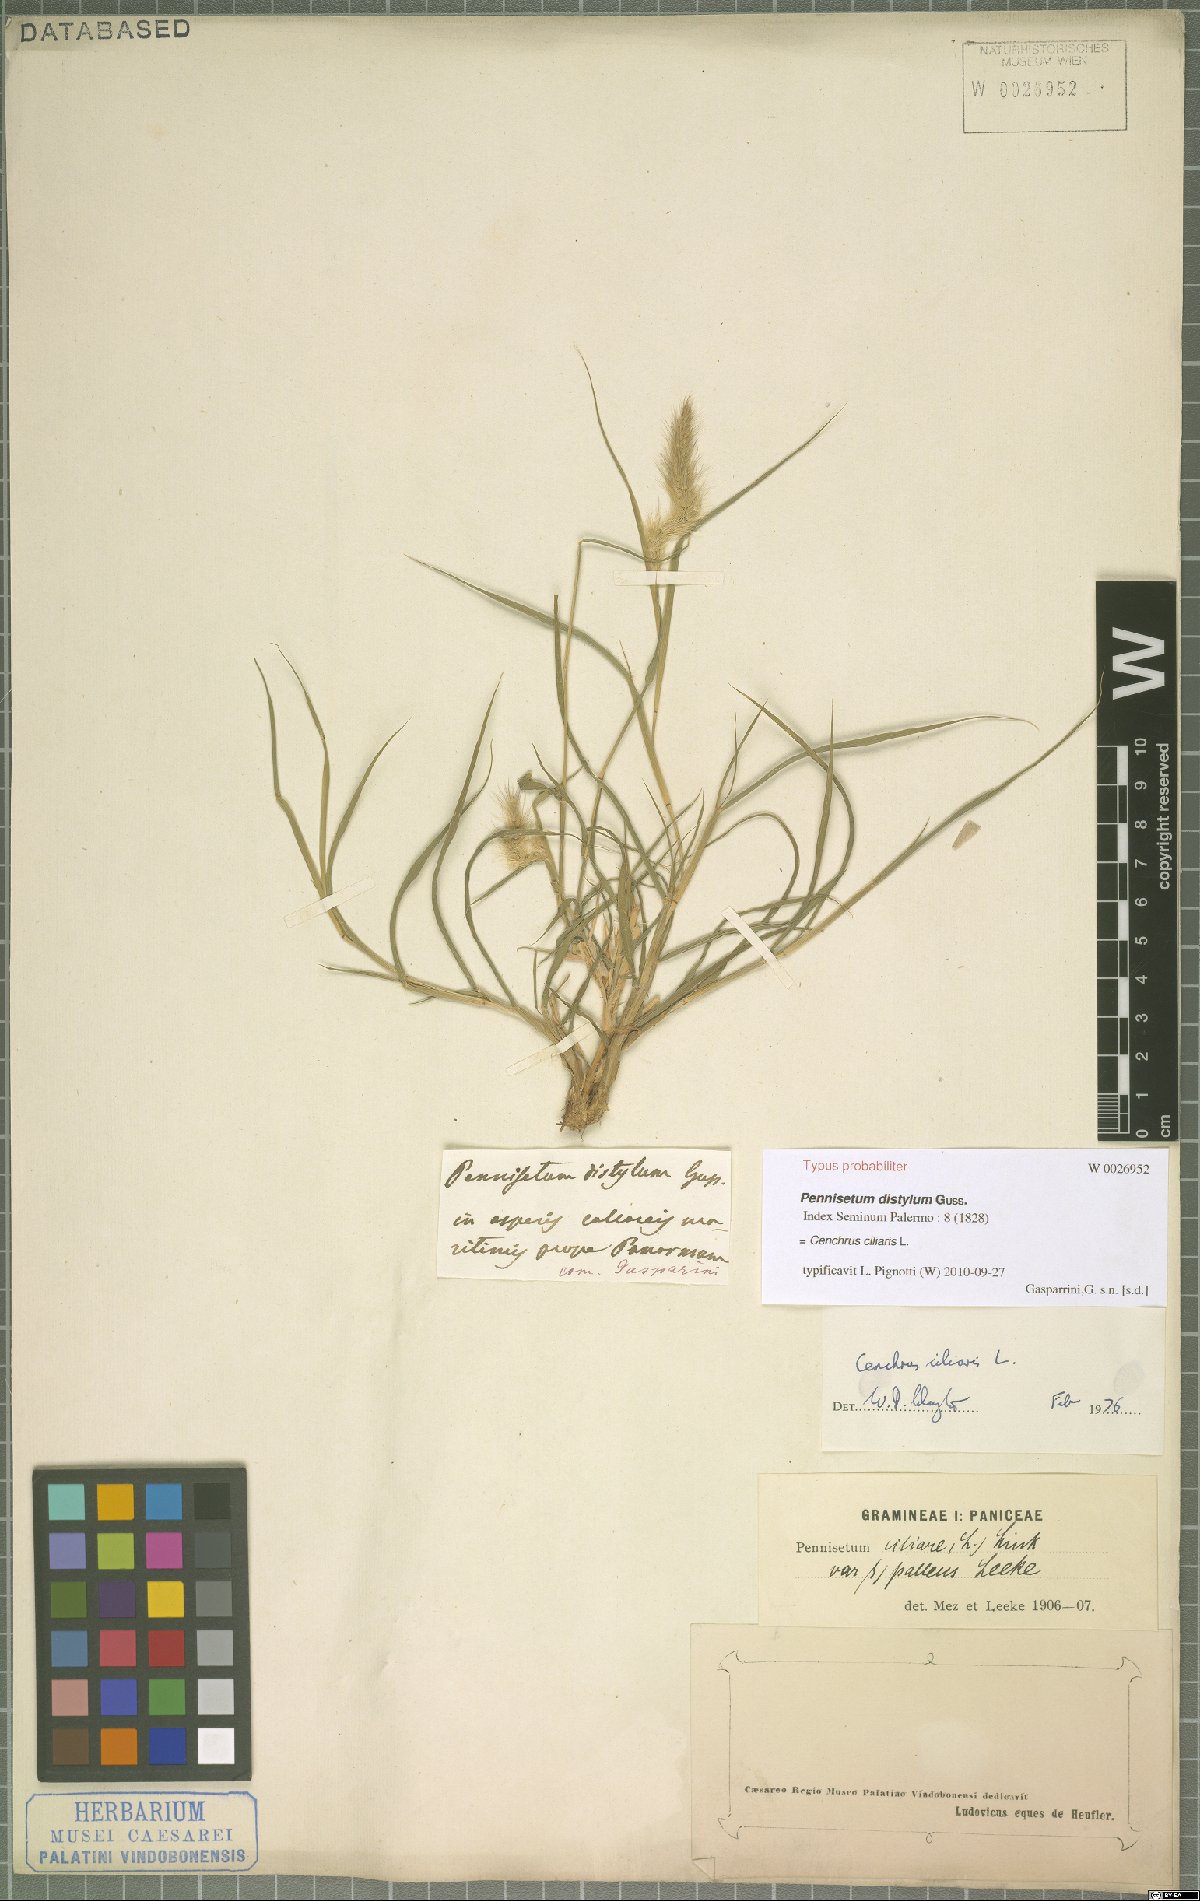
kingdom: Plantae
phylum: Tracheophyta
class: Liliopsida
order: Poales
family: Poaceae
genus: Cenchrus
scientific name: Cenchrus ciliaris
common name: Buffelgrass
